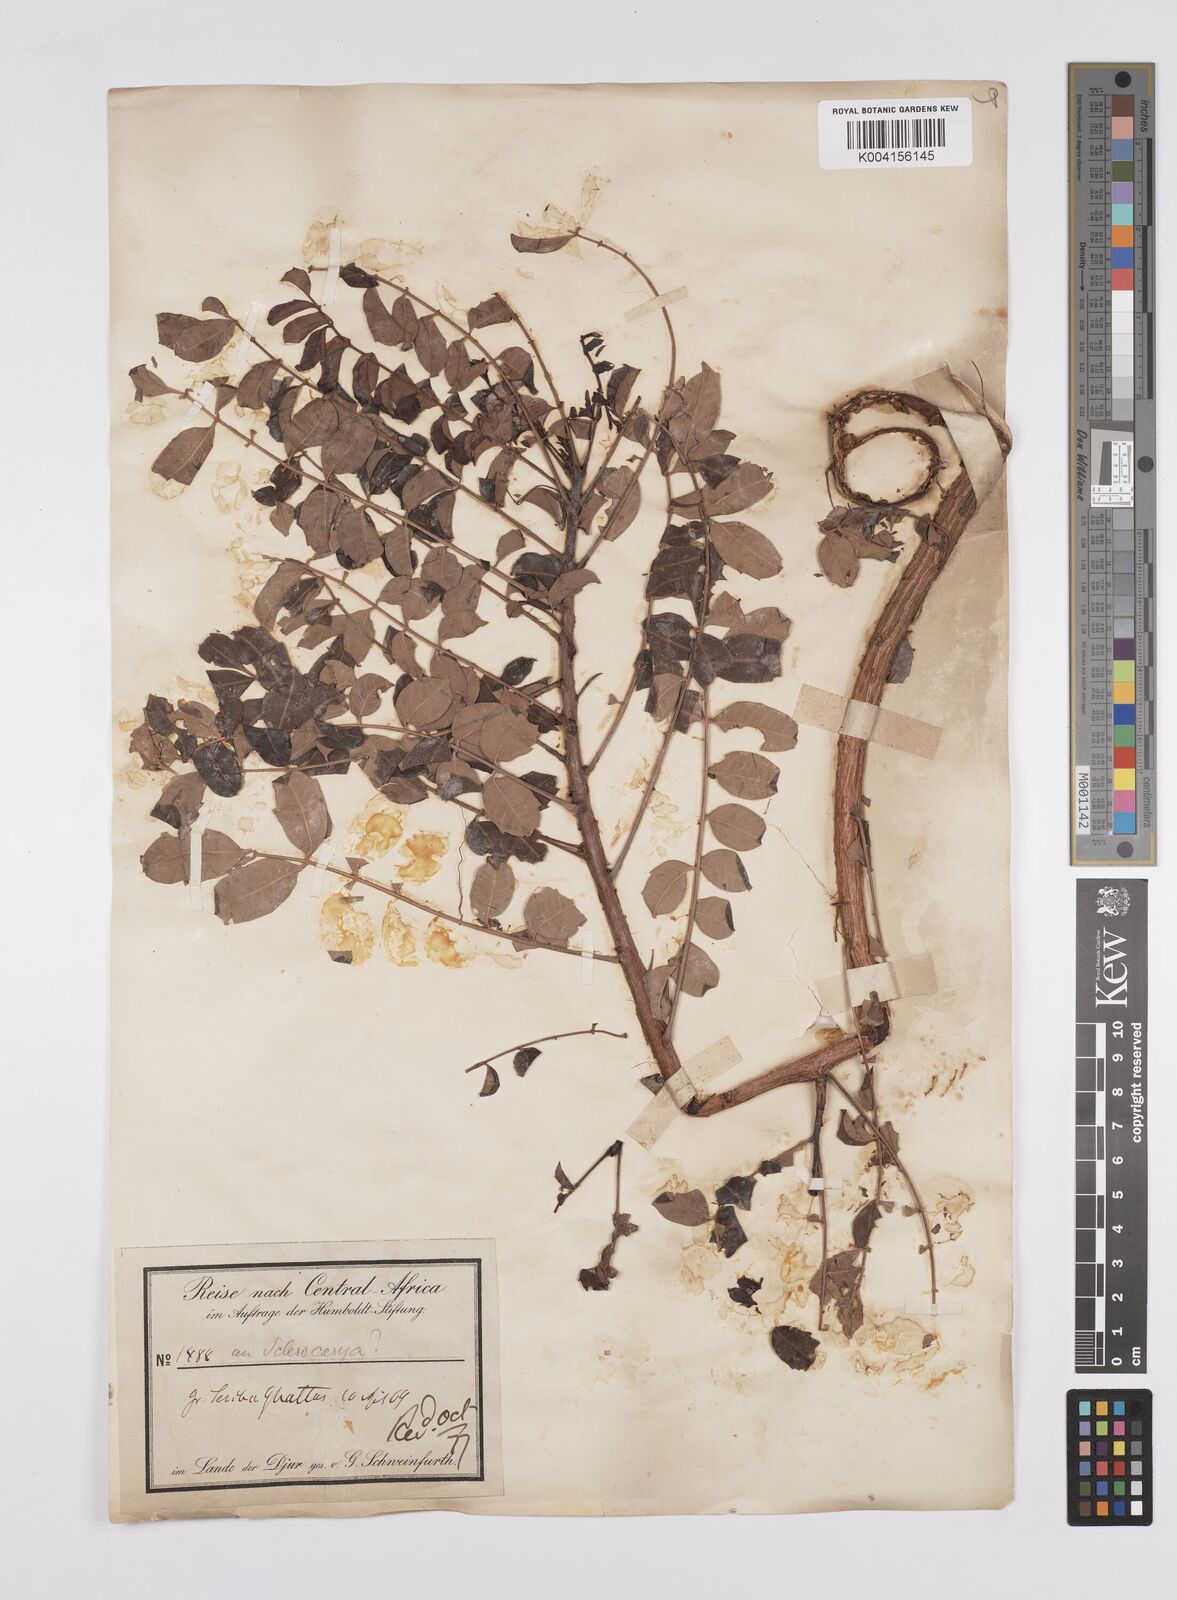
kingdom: Plantae
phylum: Tracheophyta
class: Magnoliopsida
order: Sapindales
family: Anacardiaceae
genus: Sclerocarya
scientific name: Sclerocarya birrea
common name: Marula
